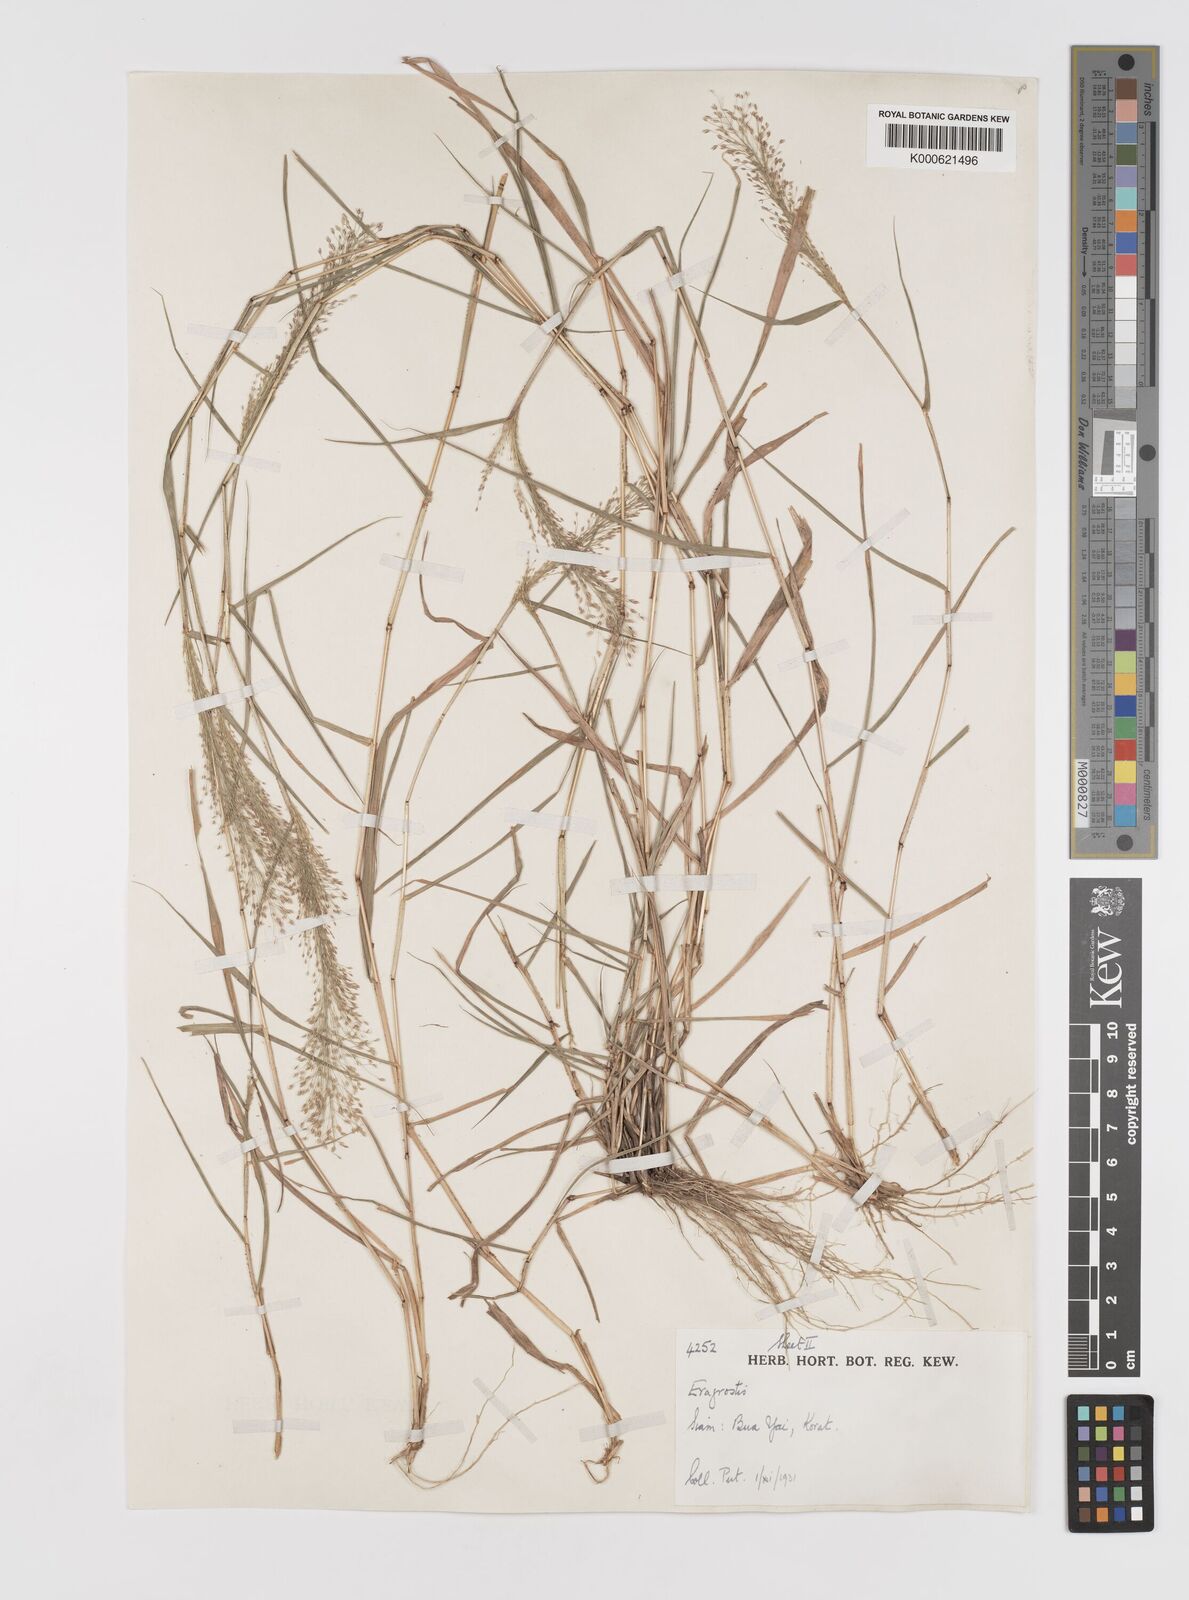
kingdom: Plantae
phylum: Tracheophyta
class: Liliopsida
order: Poales
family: Poaceae
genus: Eragrostis
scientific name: Eragrostis tenella
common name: Japanese lovegrass
